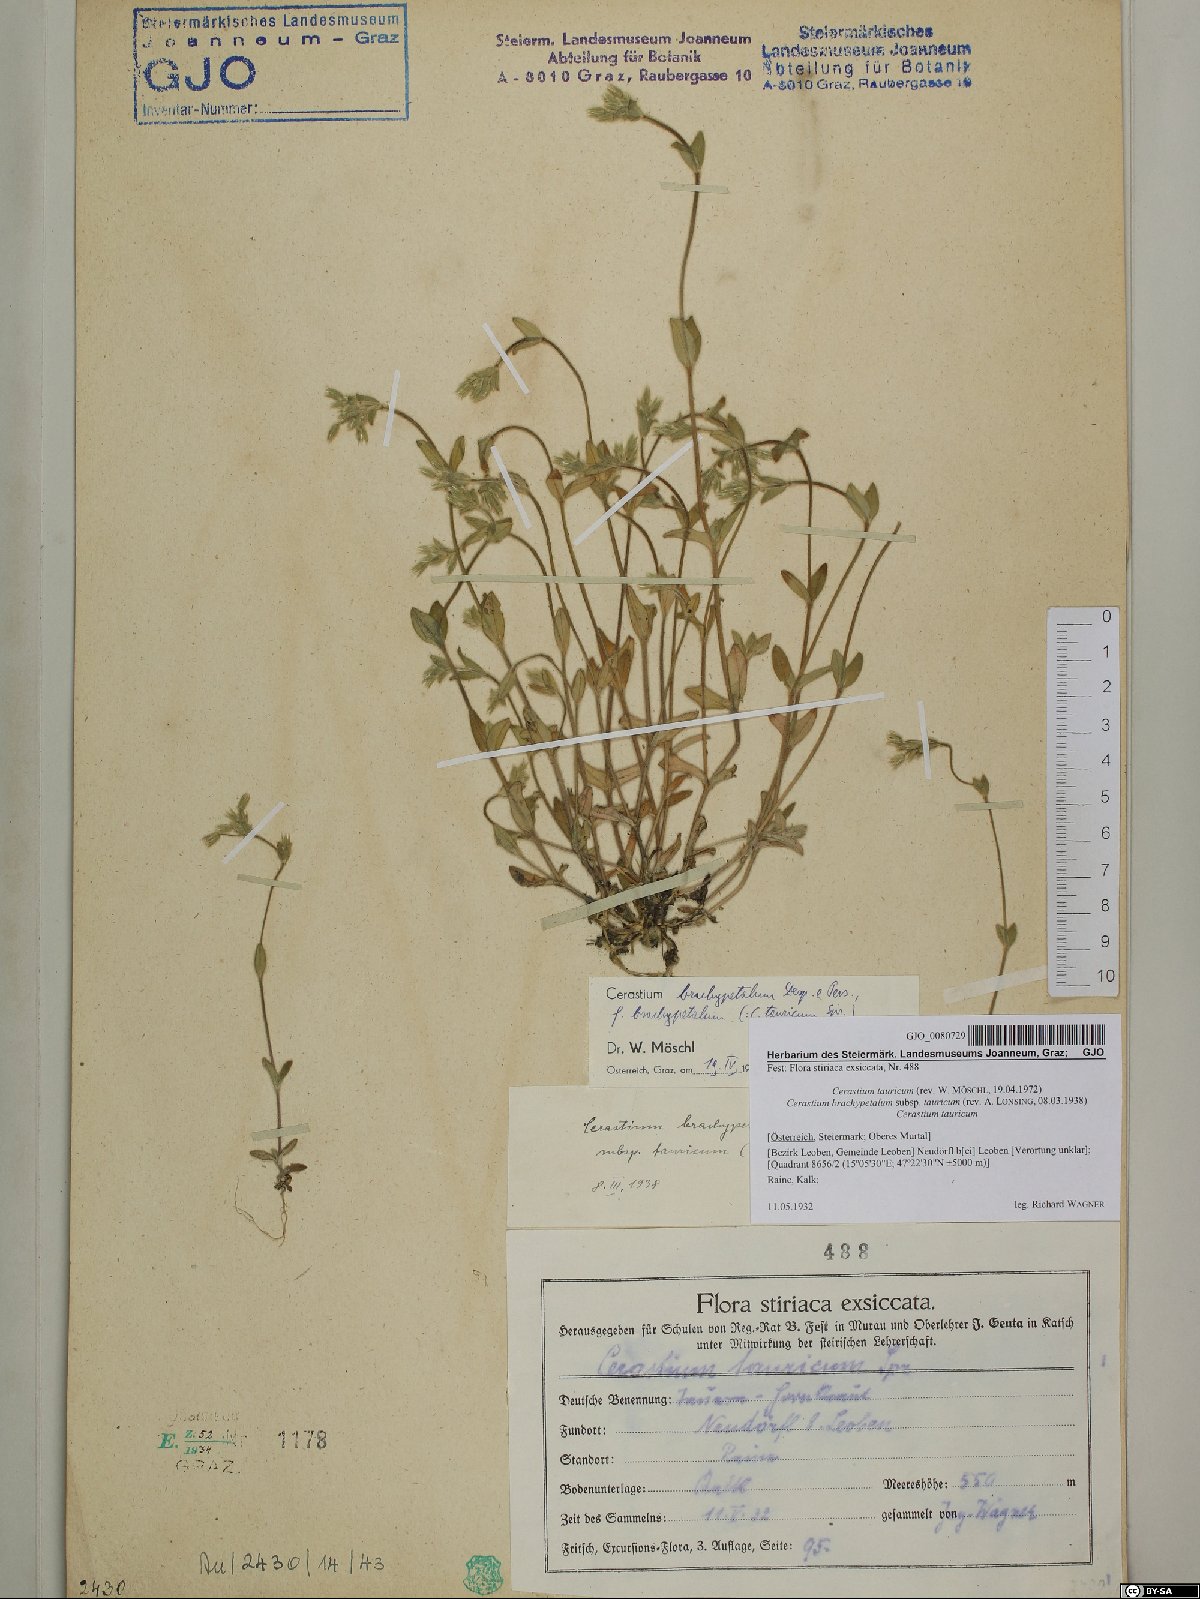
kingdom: Plantae
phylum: Tracheophyta
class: Magnoliopsida
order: Caryophyllales
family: Caryophyllaceae
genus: Cerastium
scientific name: Cerastium brachypetalum
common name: Grey mouse-ear
